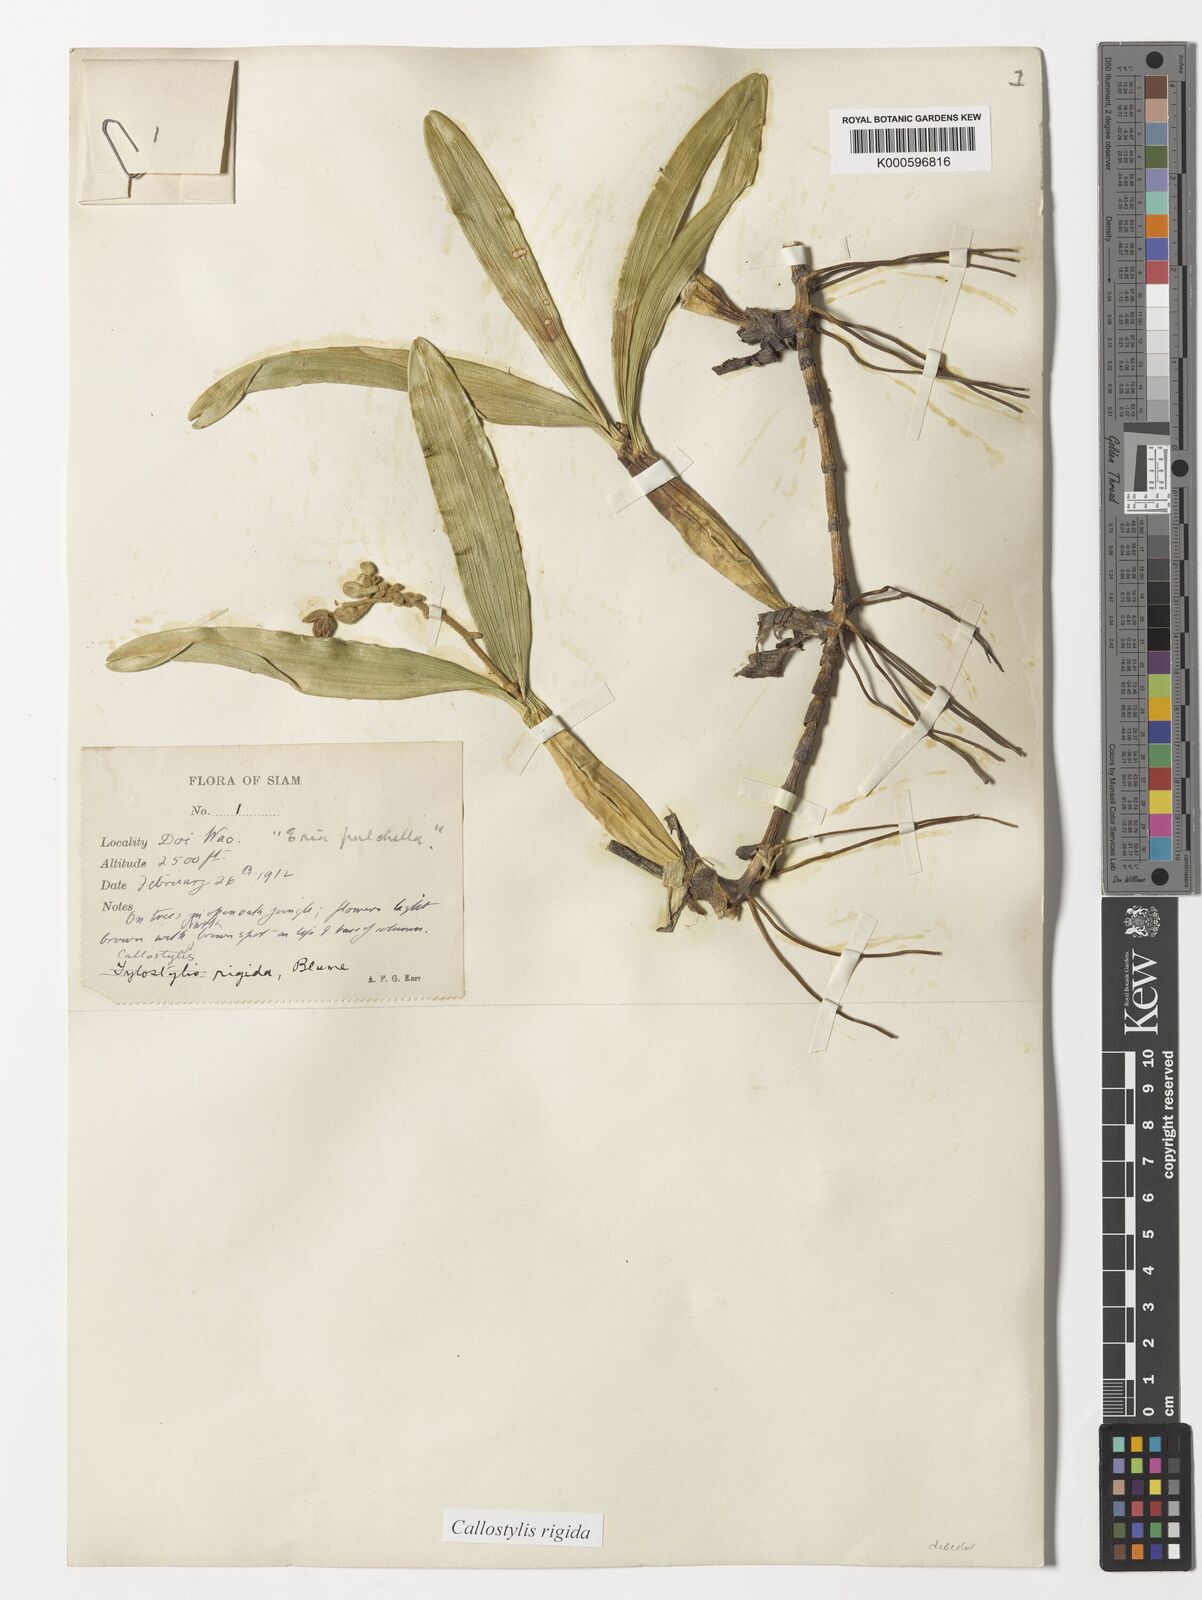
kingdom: Plantae
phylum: Tracheophyta
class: Liliopsida
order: Asparagales
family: Orchidaceae
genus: Callostylis
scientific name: Callostylis rigida
